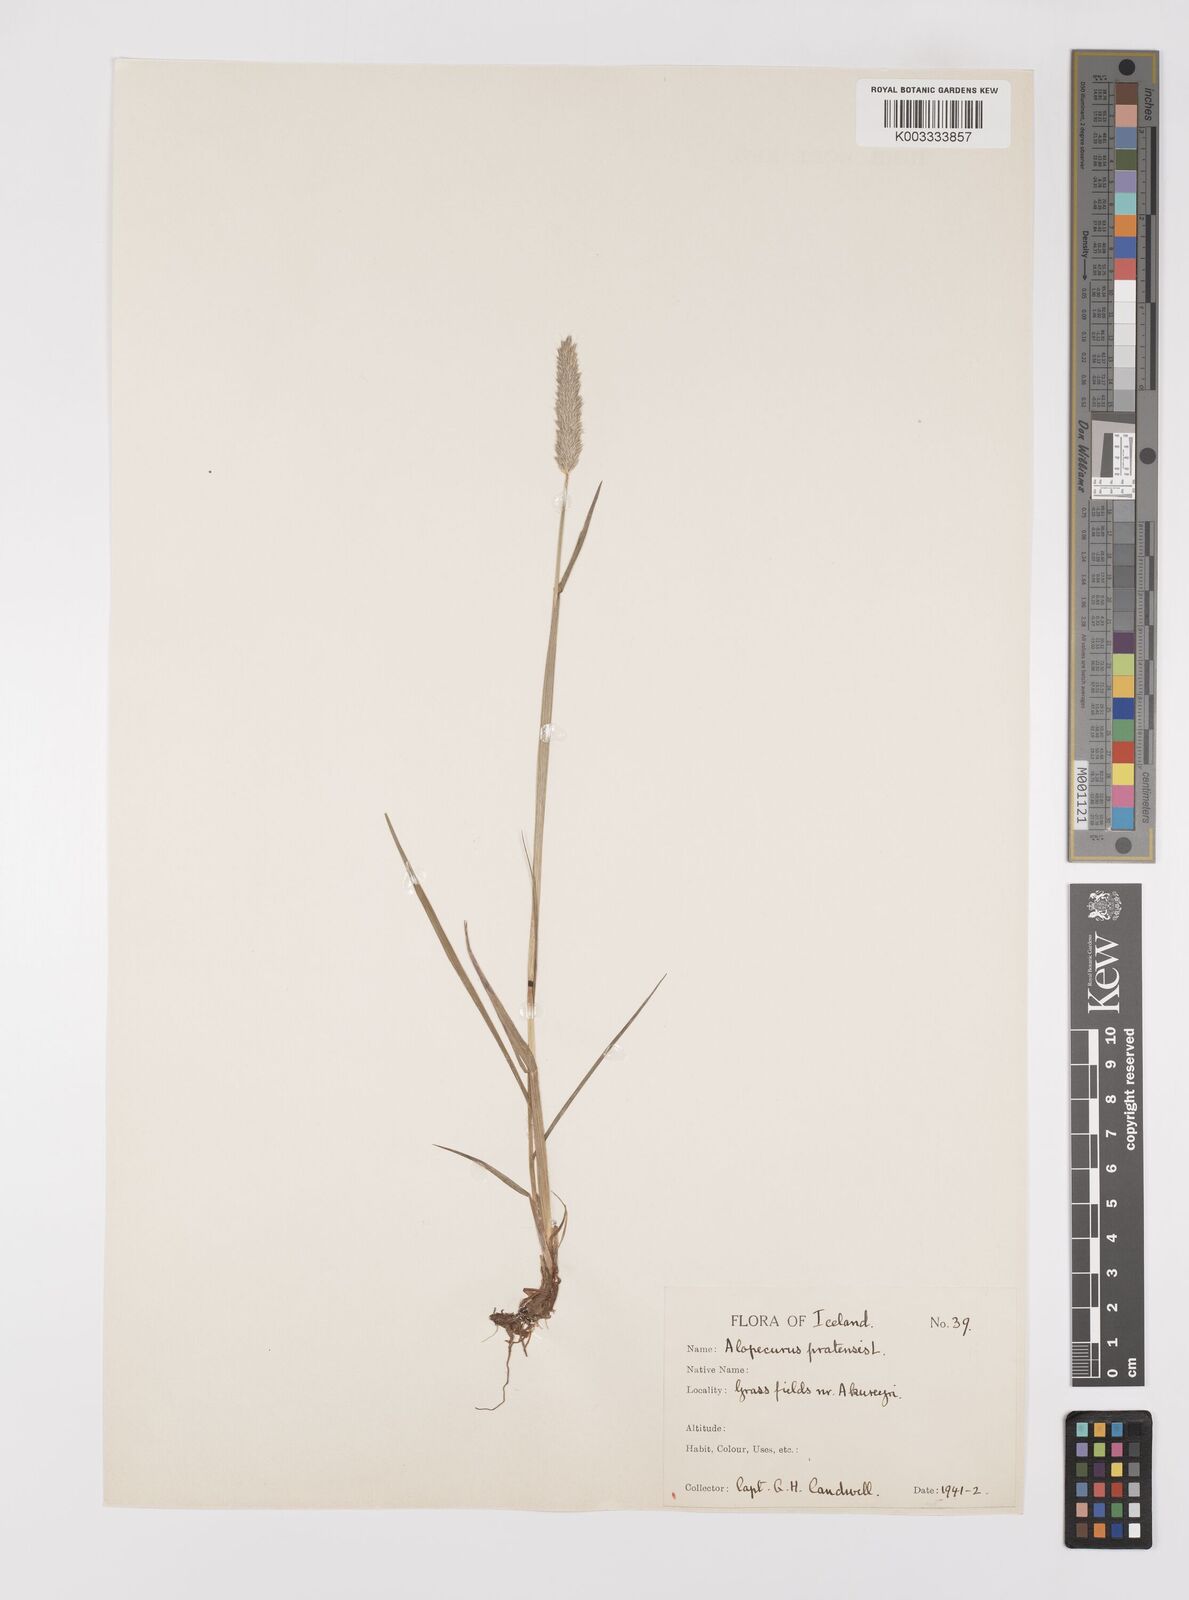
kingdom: Plantae
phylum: Tracheophyta
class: Liliopsida
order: Poales
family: Poaceae
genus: Alopecurus
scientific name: Alopecurus pratensis
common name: Meadow foxtail
